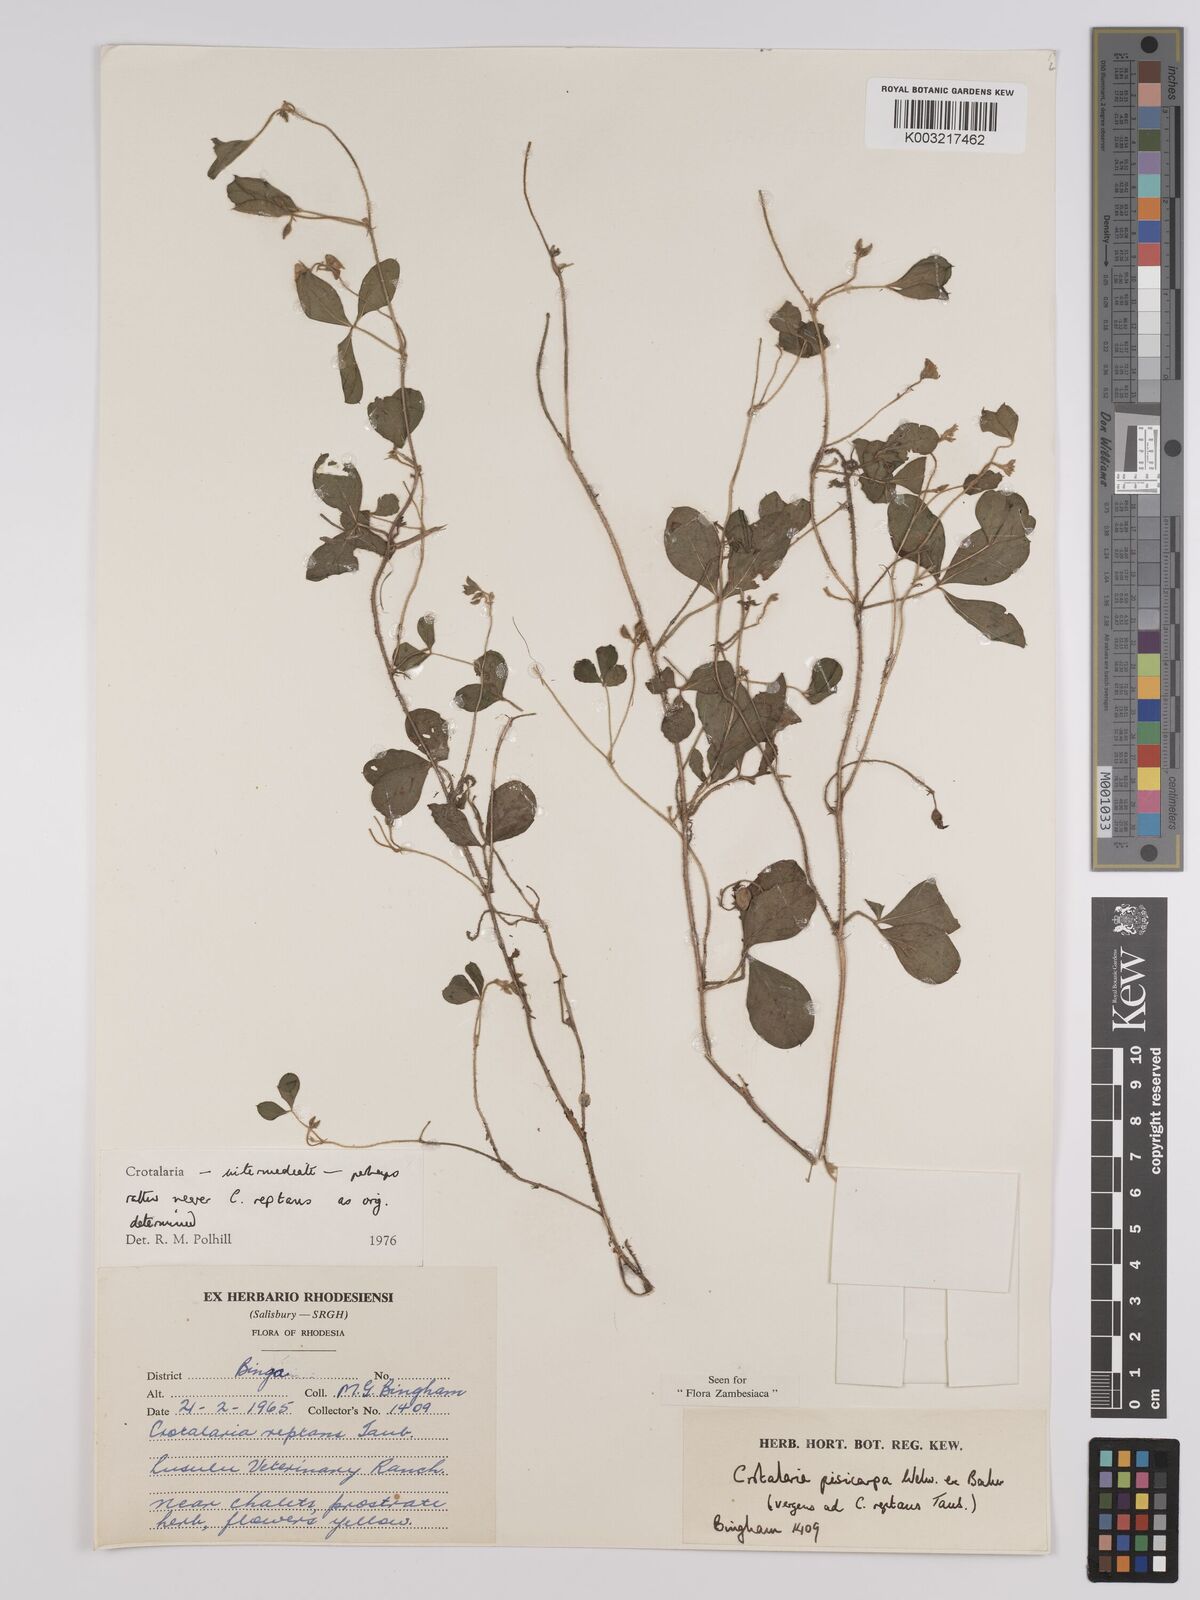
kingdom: Plantae
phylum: Tracheophyta
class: Magnoliopsida
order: Fabales
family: Fabaceae
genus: Crotalaria
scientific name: Crotalaria reptans
